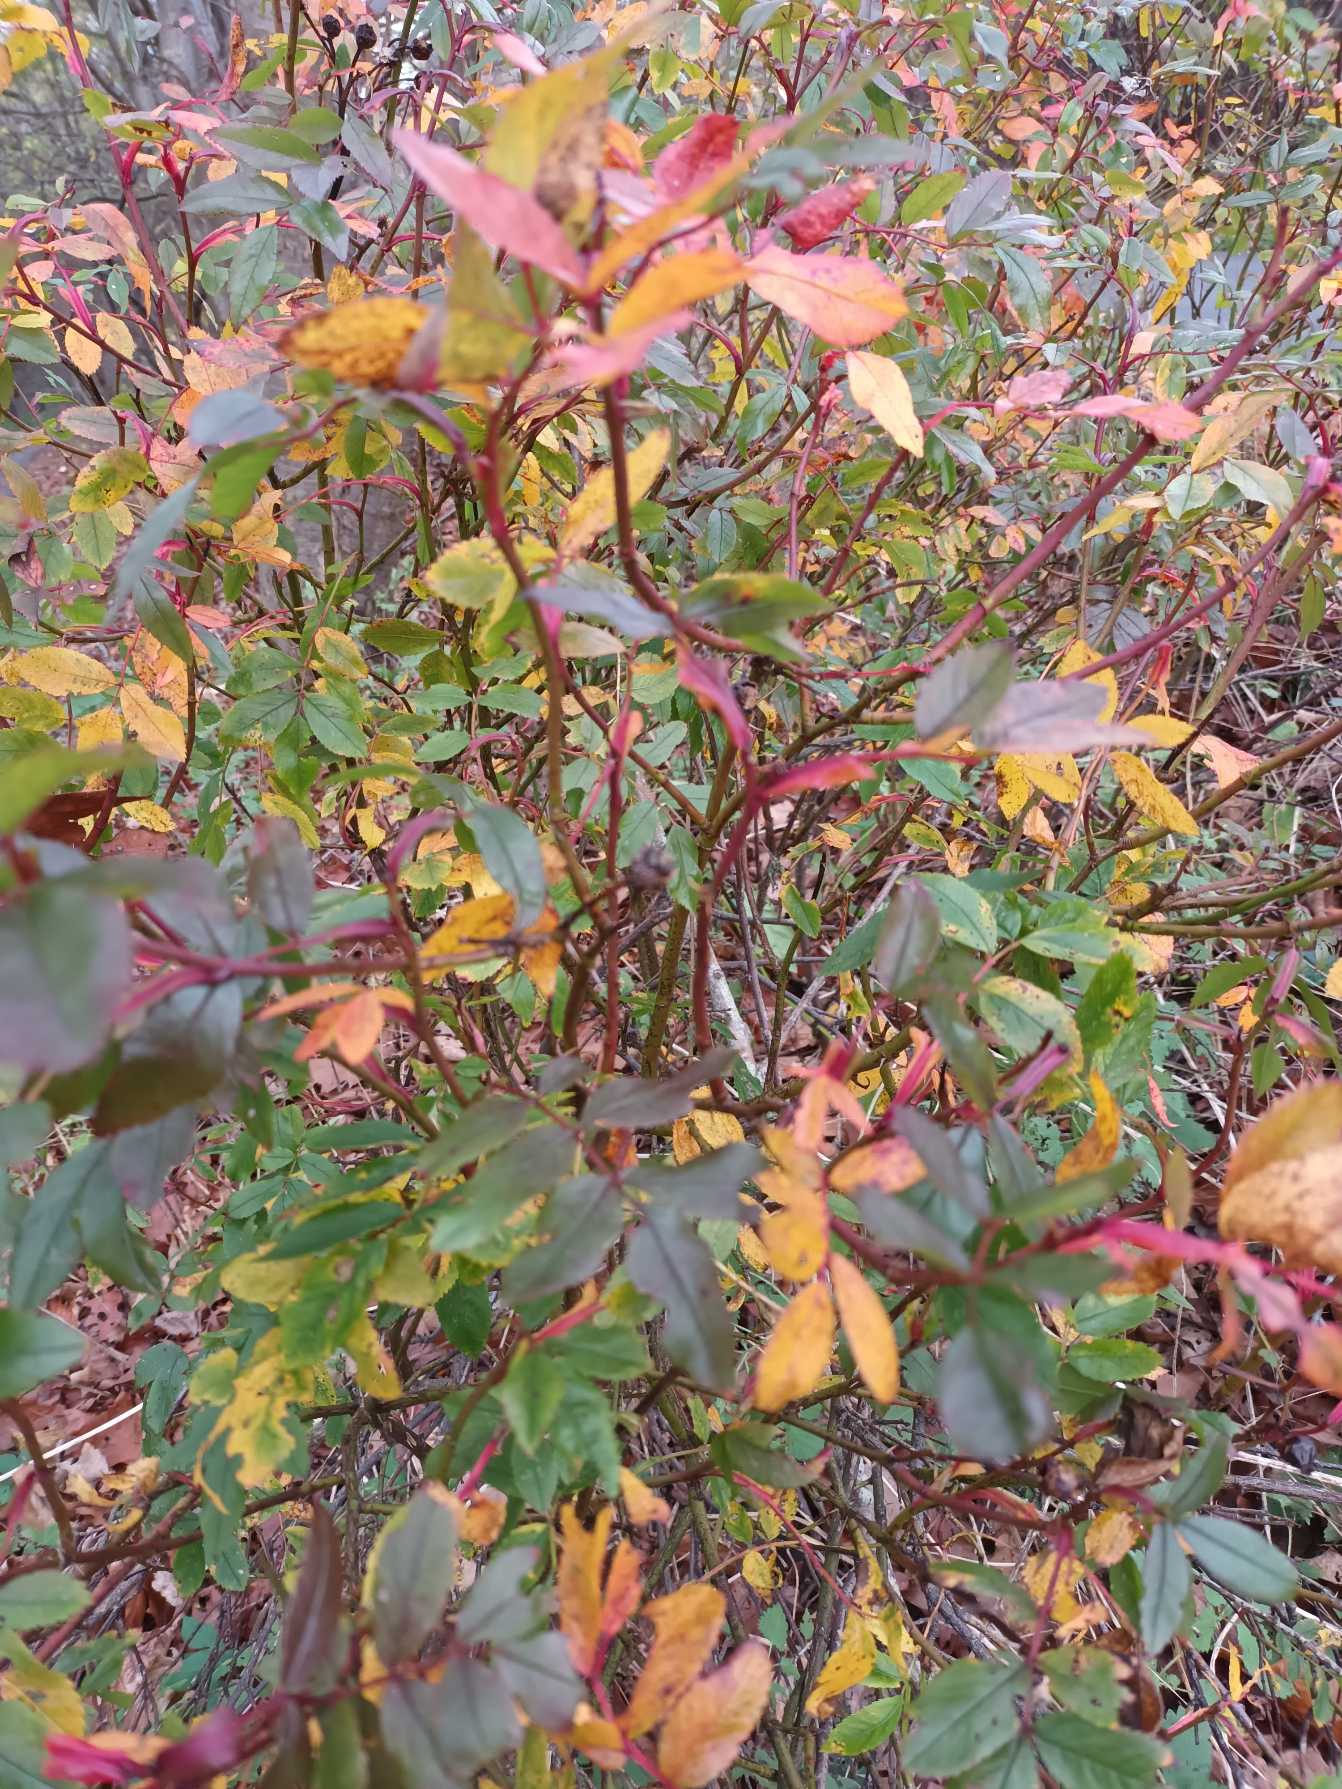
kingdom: Plantae
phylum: Tracheophyta
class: Magnoliopsida
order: Rosales
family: Rosaceae
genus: Rosa
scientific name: Rosa carolina
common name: Glansbladet rose
